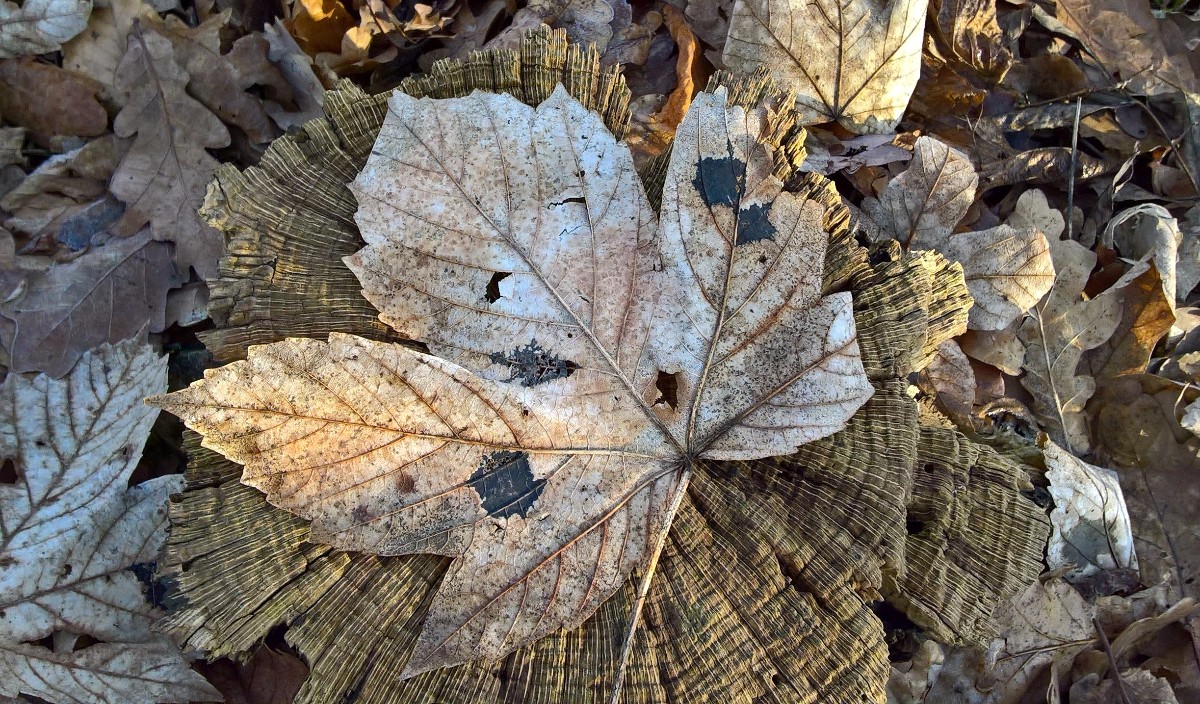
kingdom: Fungi
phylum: Ascomycota
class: Leotiomycetes
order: Rhytismatales
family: Rhytismataceae
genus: Rhytisma
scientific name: Rhytisma acerinum
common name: ahorn-rynkeplet
